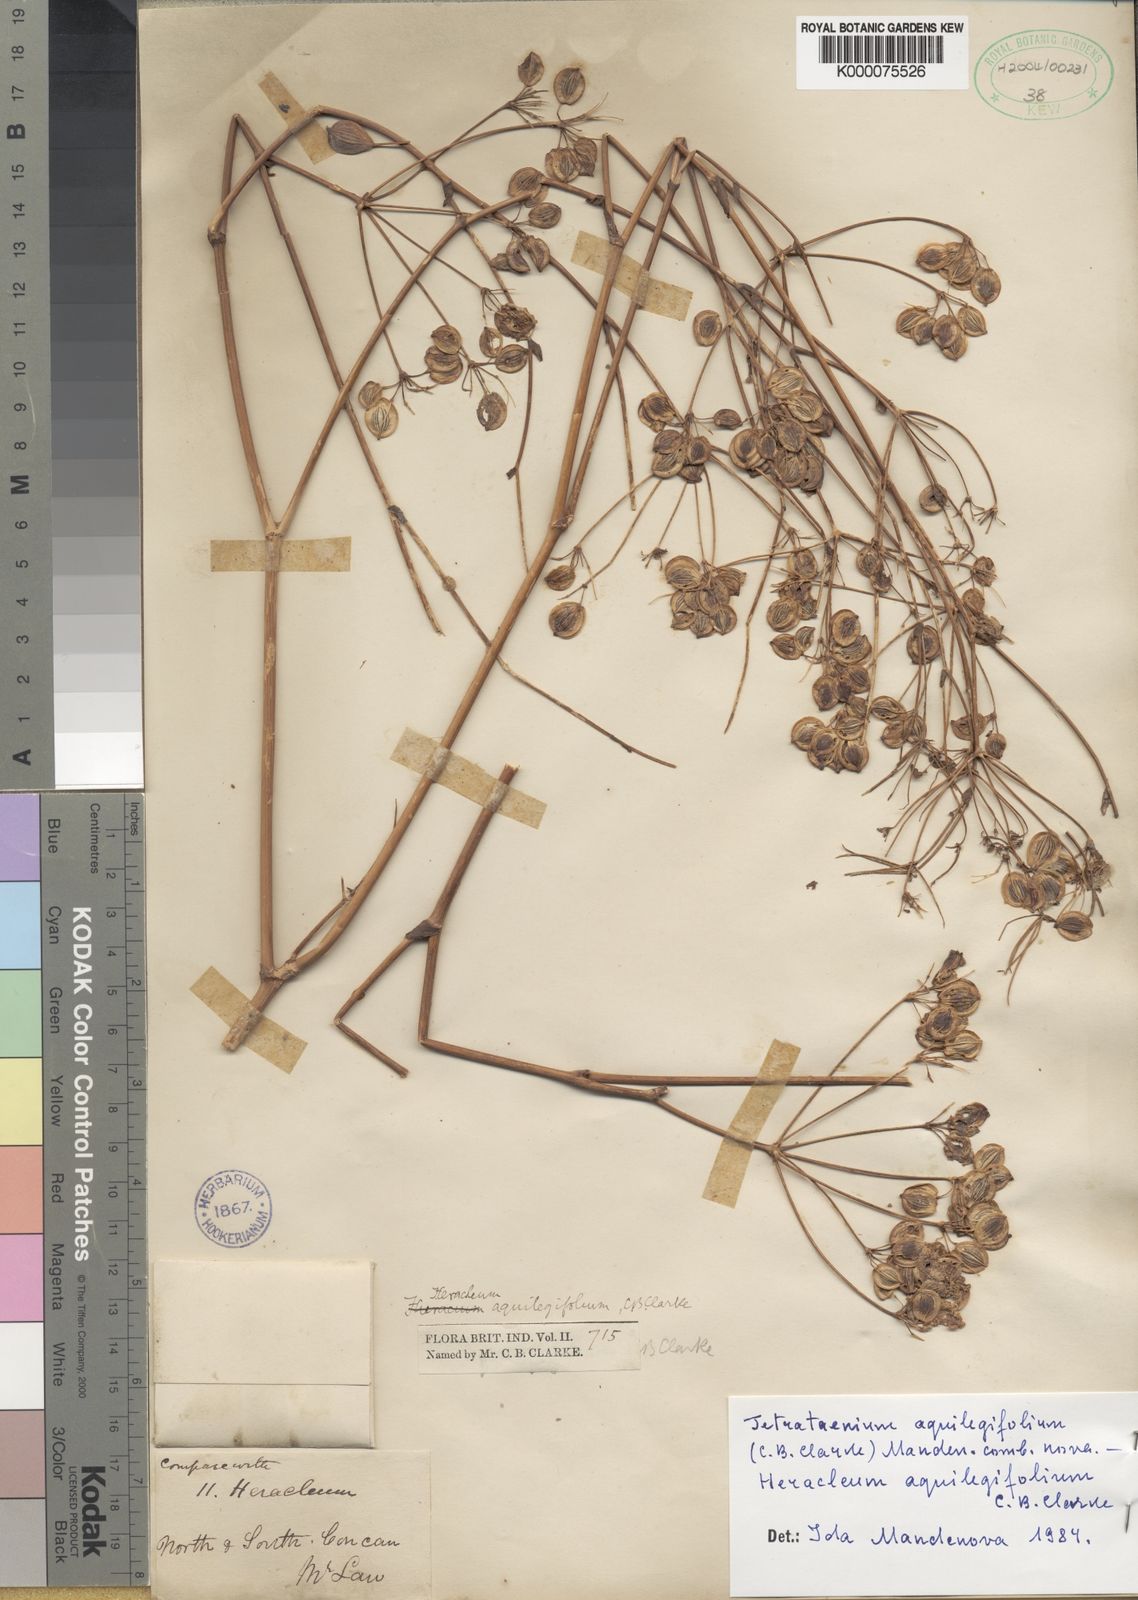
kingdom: Plantae
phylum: Tracheophyta
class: Magnoliopsida
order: Apiales
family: Apiaceae
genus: Tetrataenium
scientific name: Tetrataenium aquilegifolium
